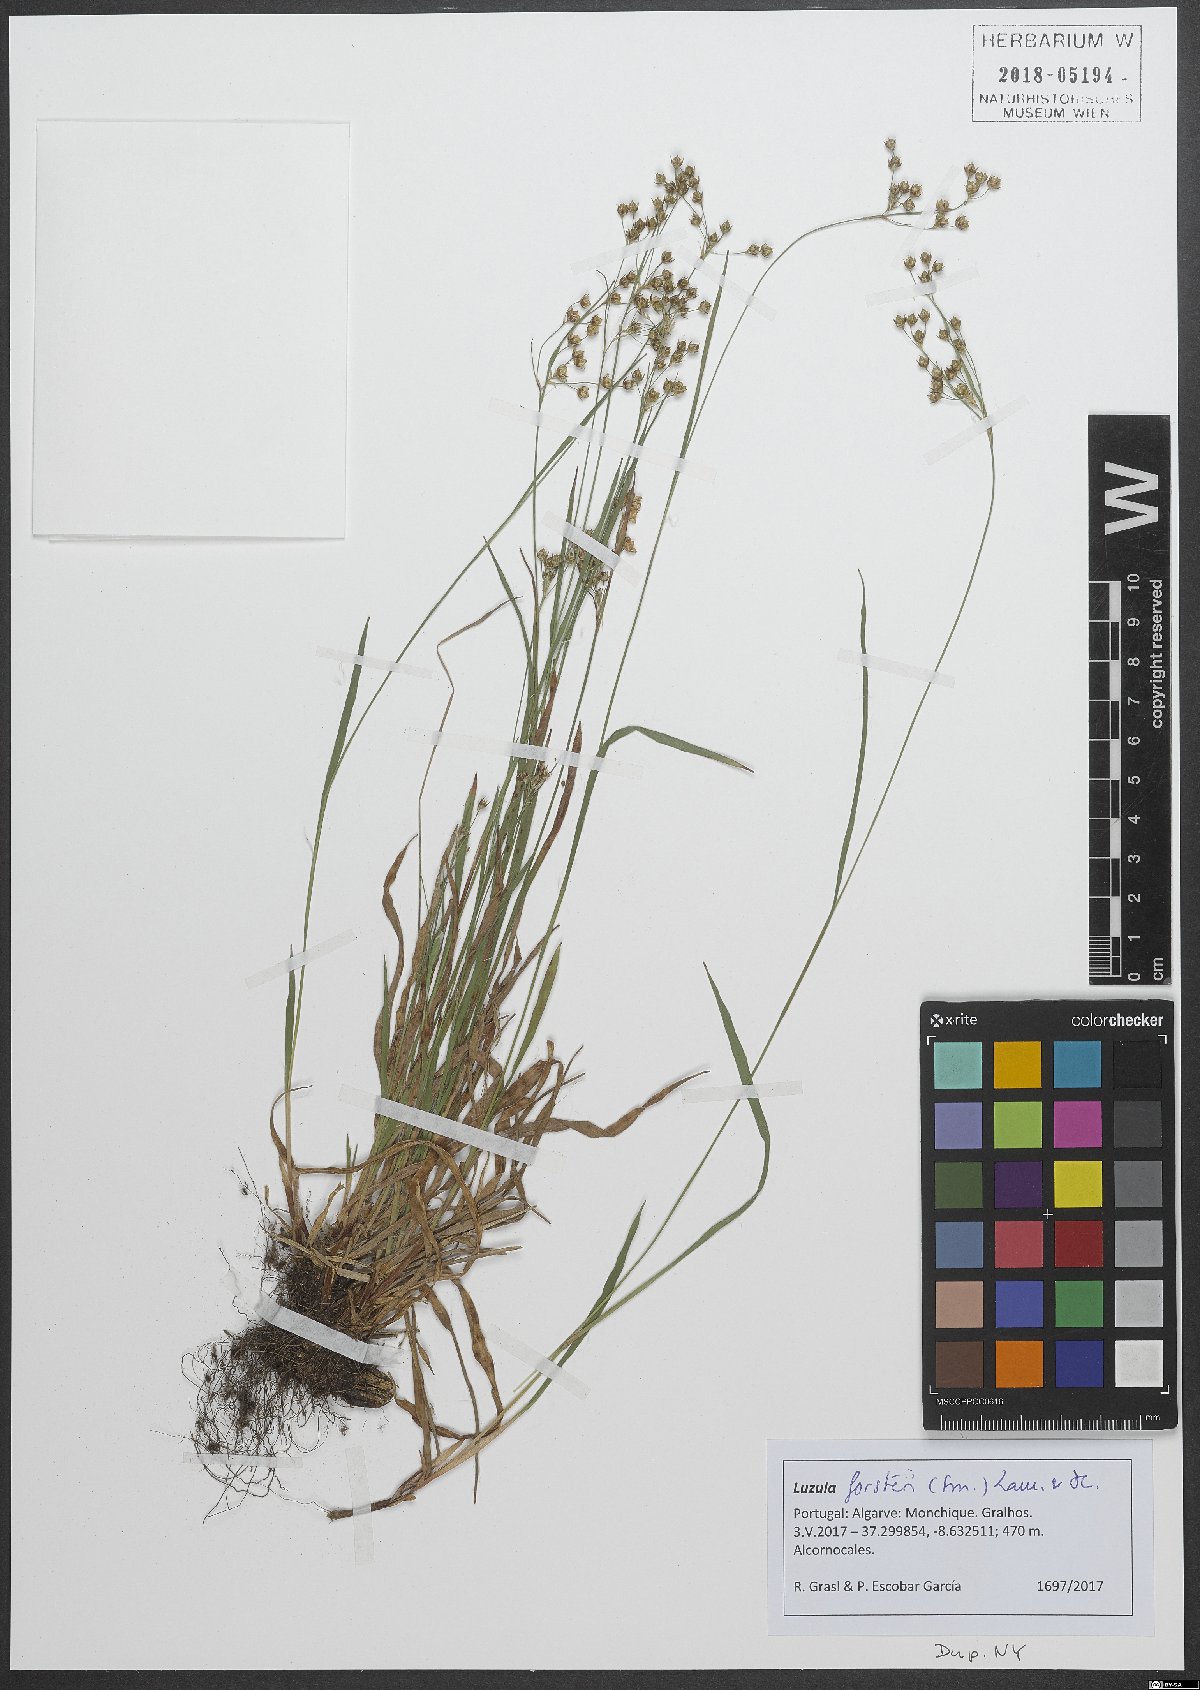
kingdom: Plantae
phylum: Tracheophyta
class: Liliopsida
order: Poales
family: Juncaceae
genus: Luzula
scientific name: Luzula forsteri
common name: Southern wood-rush
